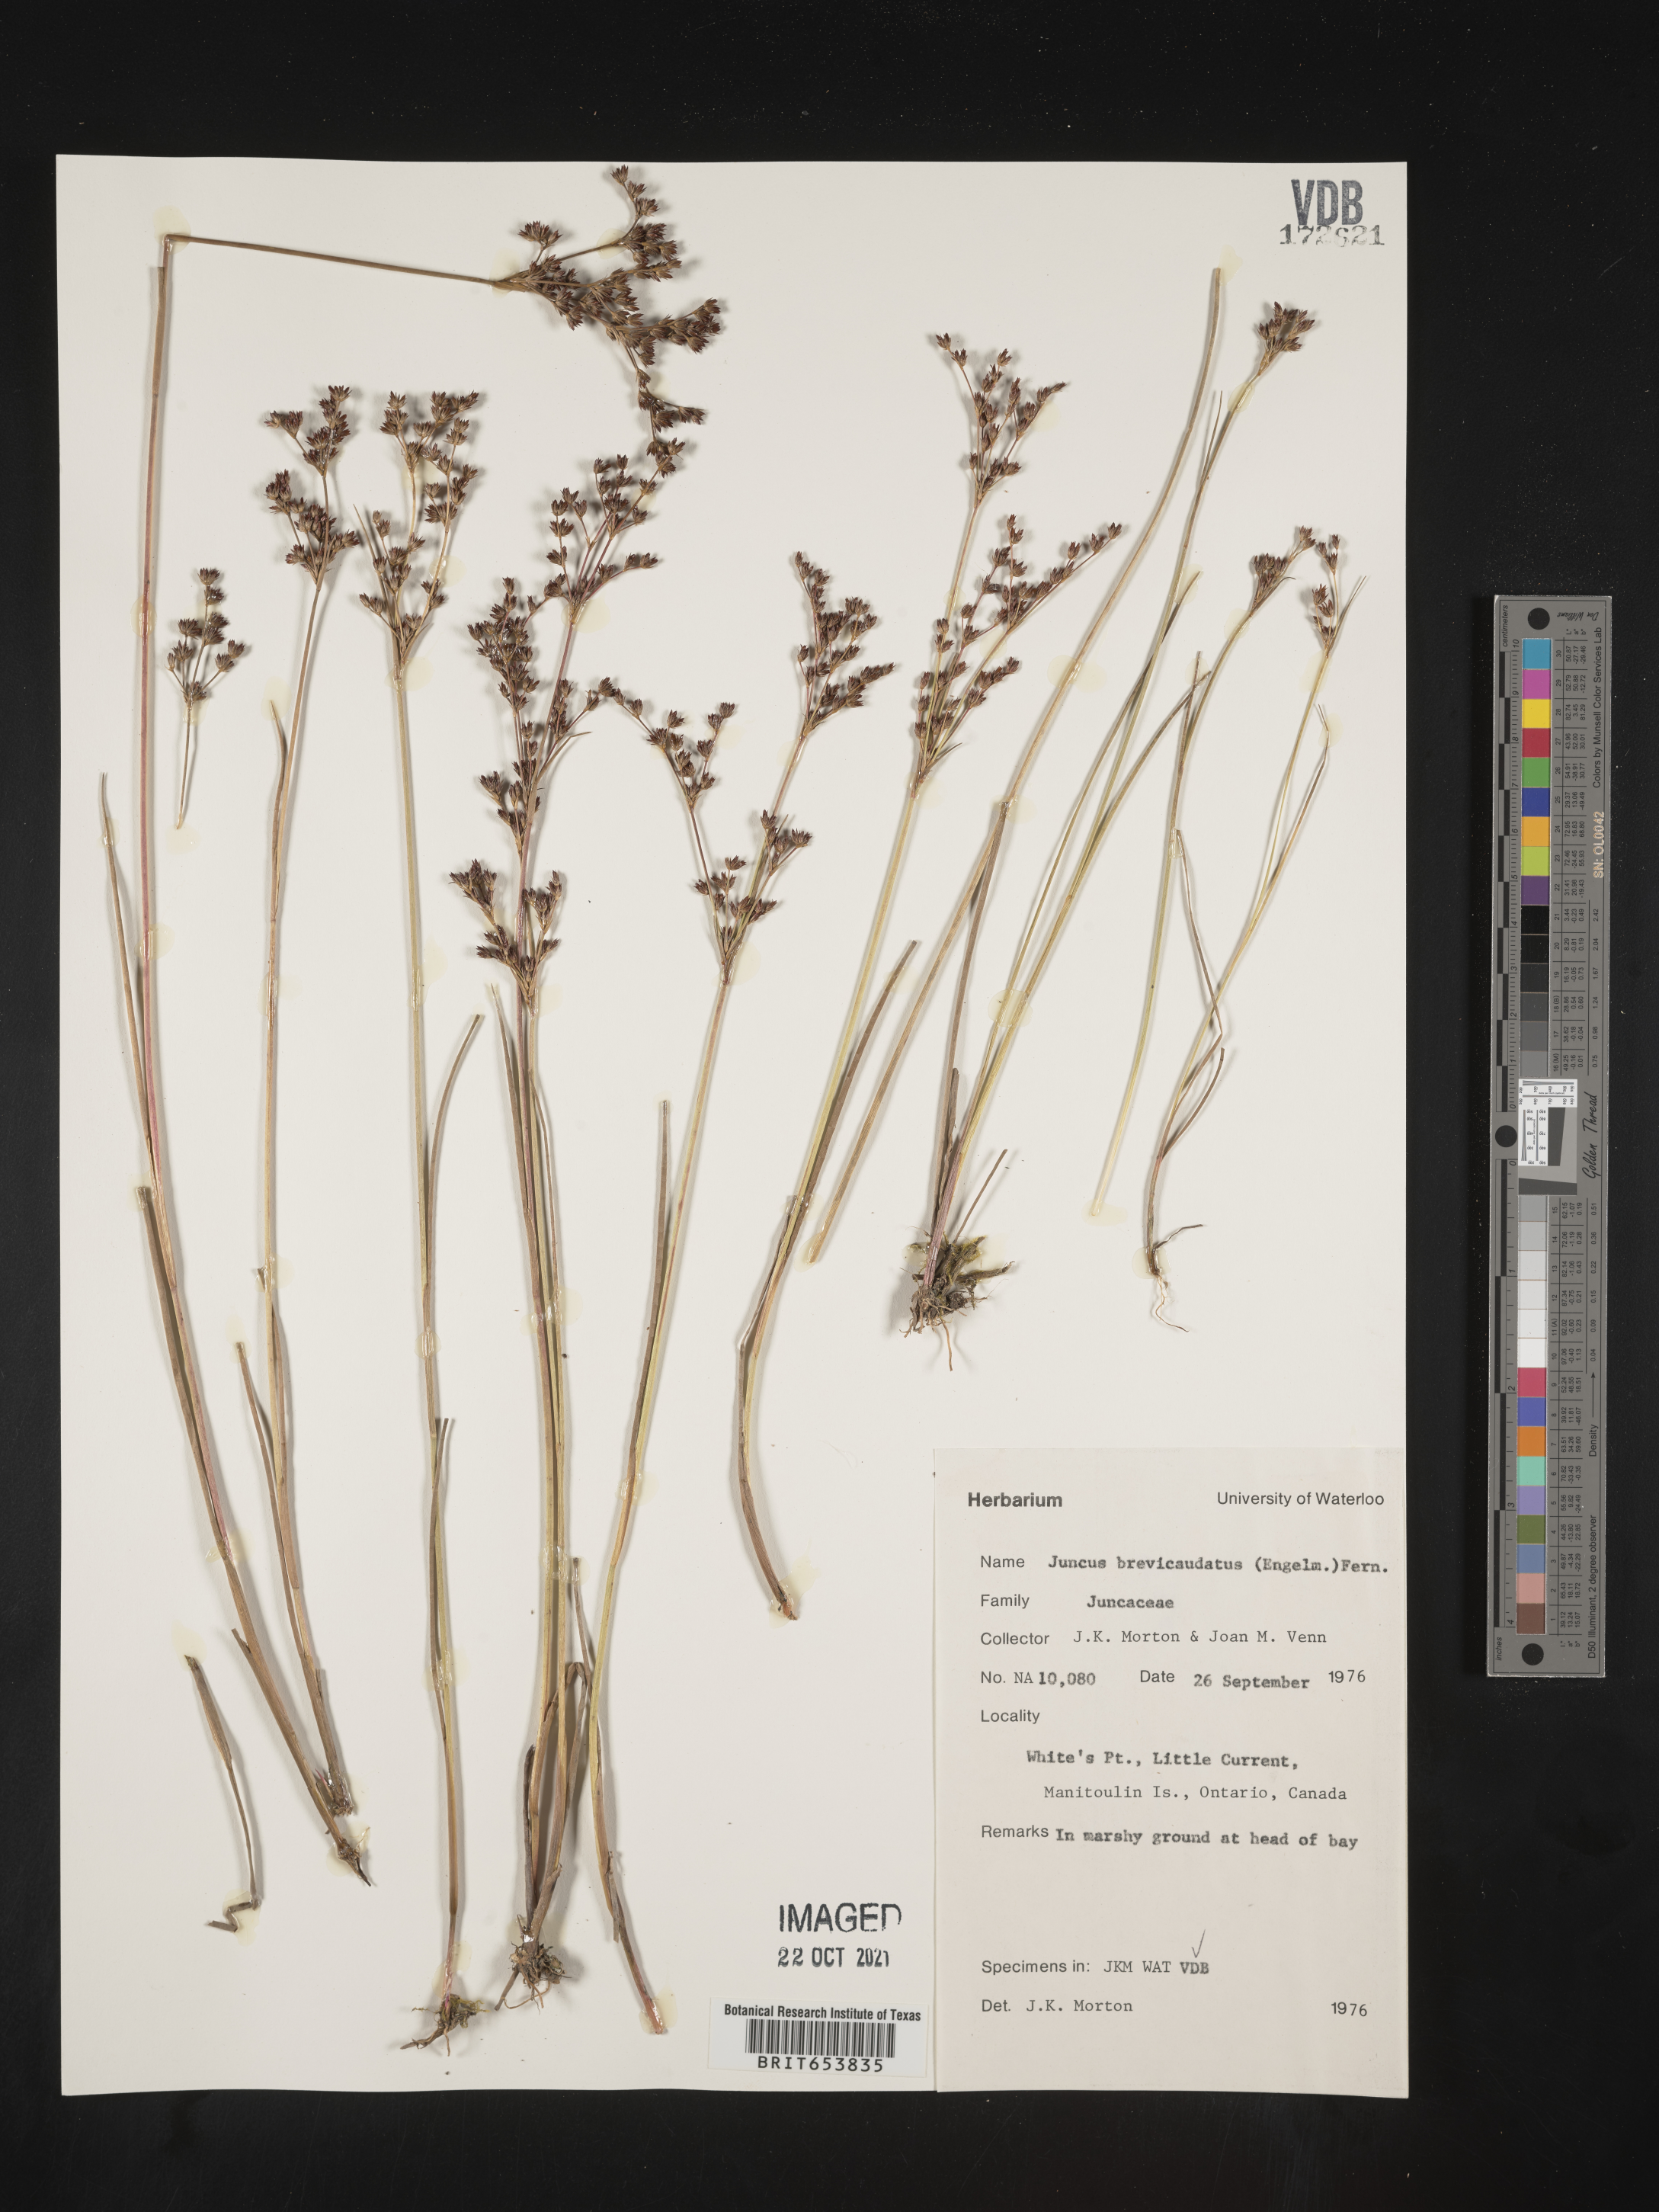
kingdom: Plantae
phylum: Tracheophyta
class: Liliopsida
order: Poales
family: Juncaceae
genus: Juncus
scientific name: Juncus brevicaudatus
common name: Narrow-panicle rush
